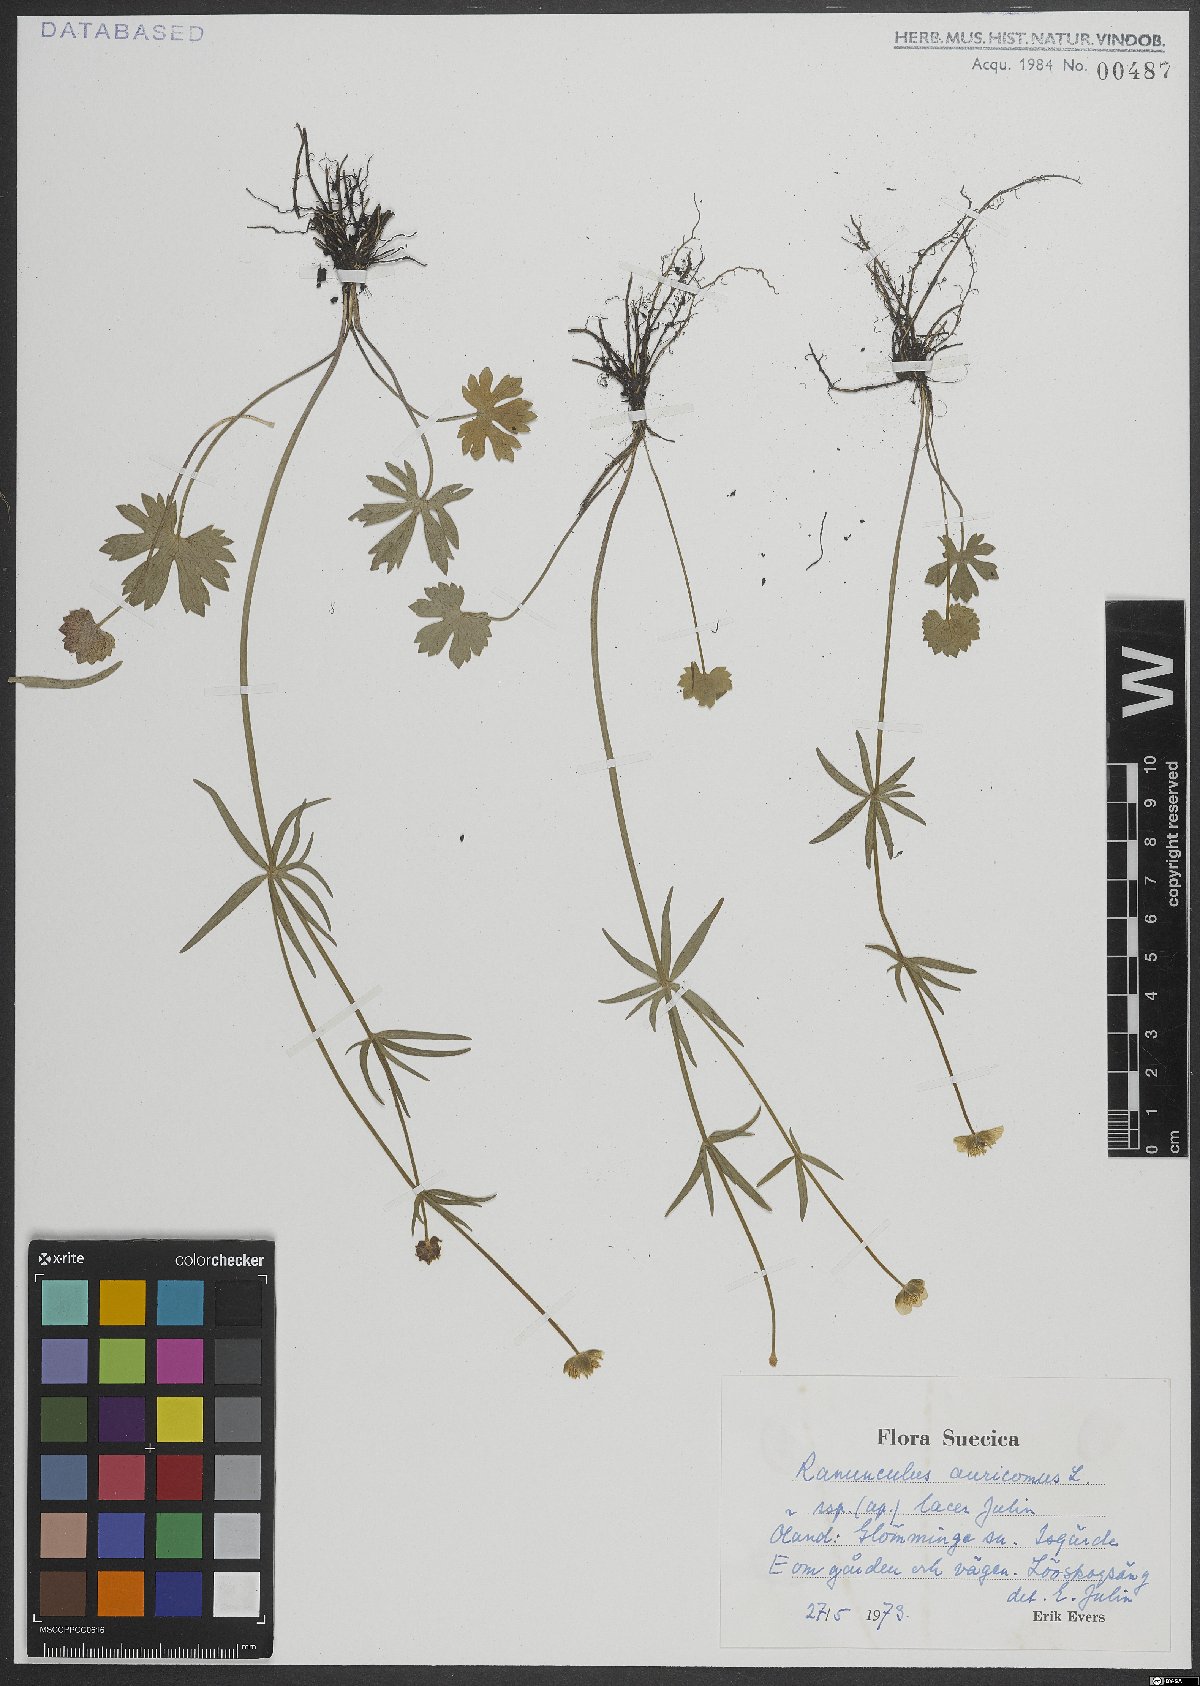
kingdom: Plantae
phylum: Tracheophyta
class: Magnoliopsida
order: Ranunculales
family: Ranunculaceae
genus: Ranunculus
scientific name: Ranunculus auricomus
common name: Goldilocks buttercup
